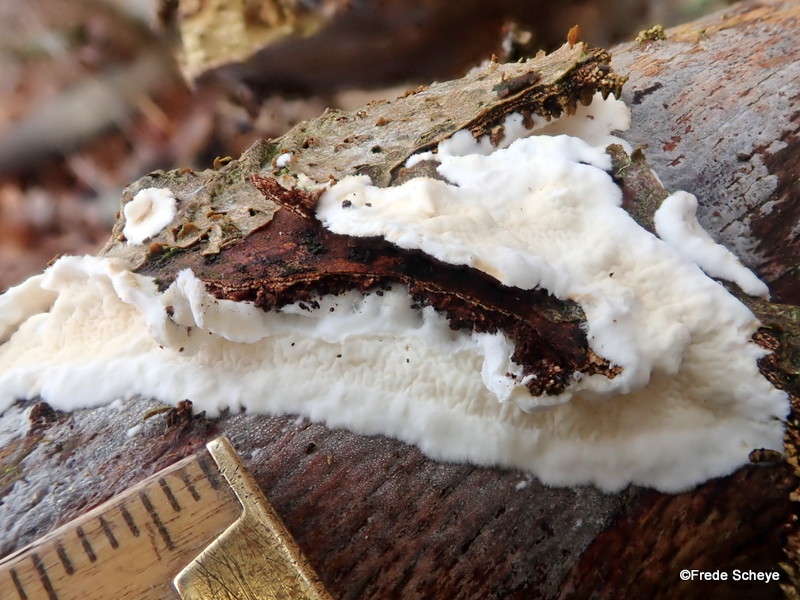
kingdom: Fungi
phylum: Basidiomycota
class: Agaricomycetes
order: Polyporales
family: Irpicaceae
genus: Byssomerulius
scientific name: Byssomerulius corium
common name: læder-åresvamp
